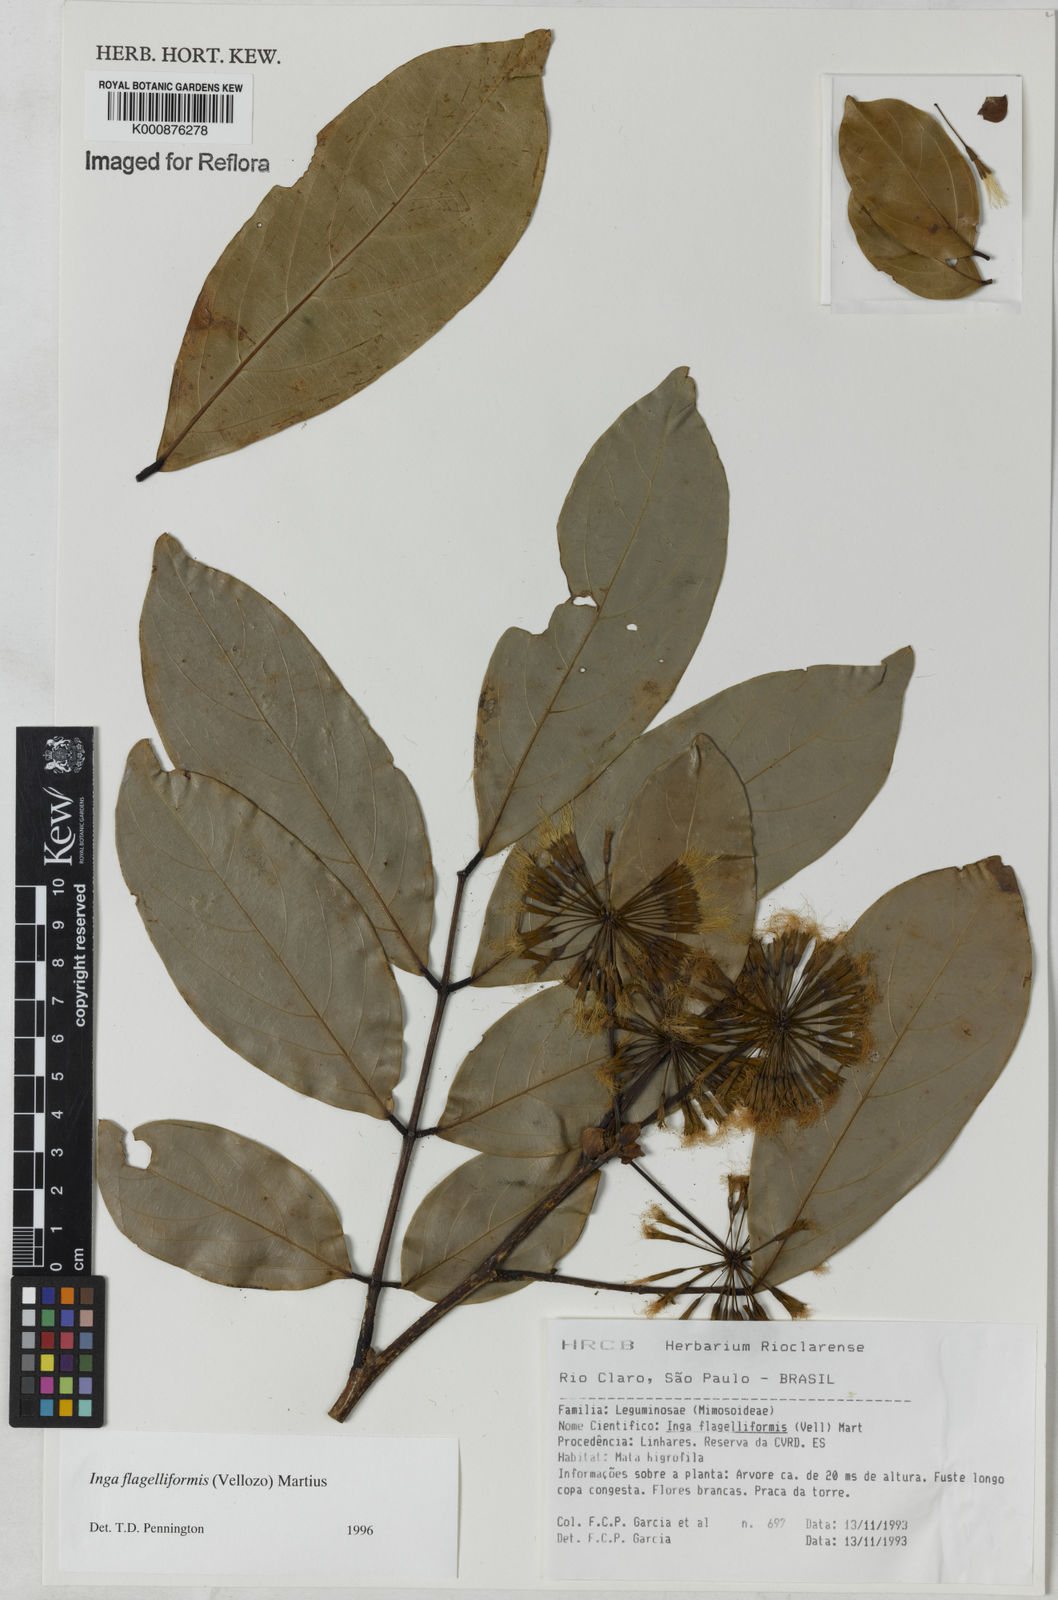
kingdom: Plantae
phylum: Tracheophyta
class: Magnoliopsida
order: Fabales
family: Fabaceae
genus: Inga
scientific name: Inga flagelliformis
